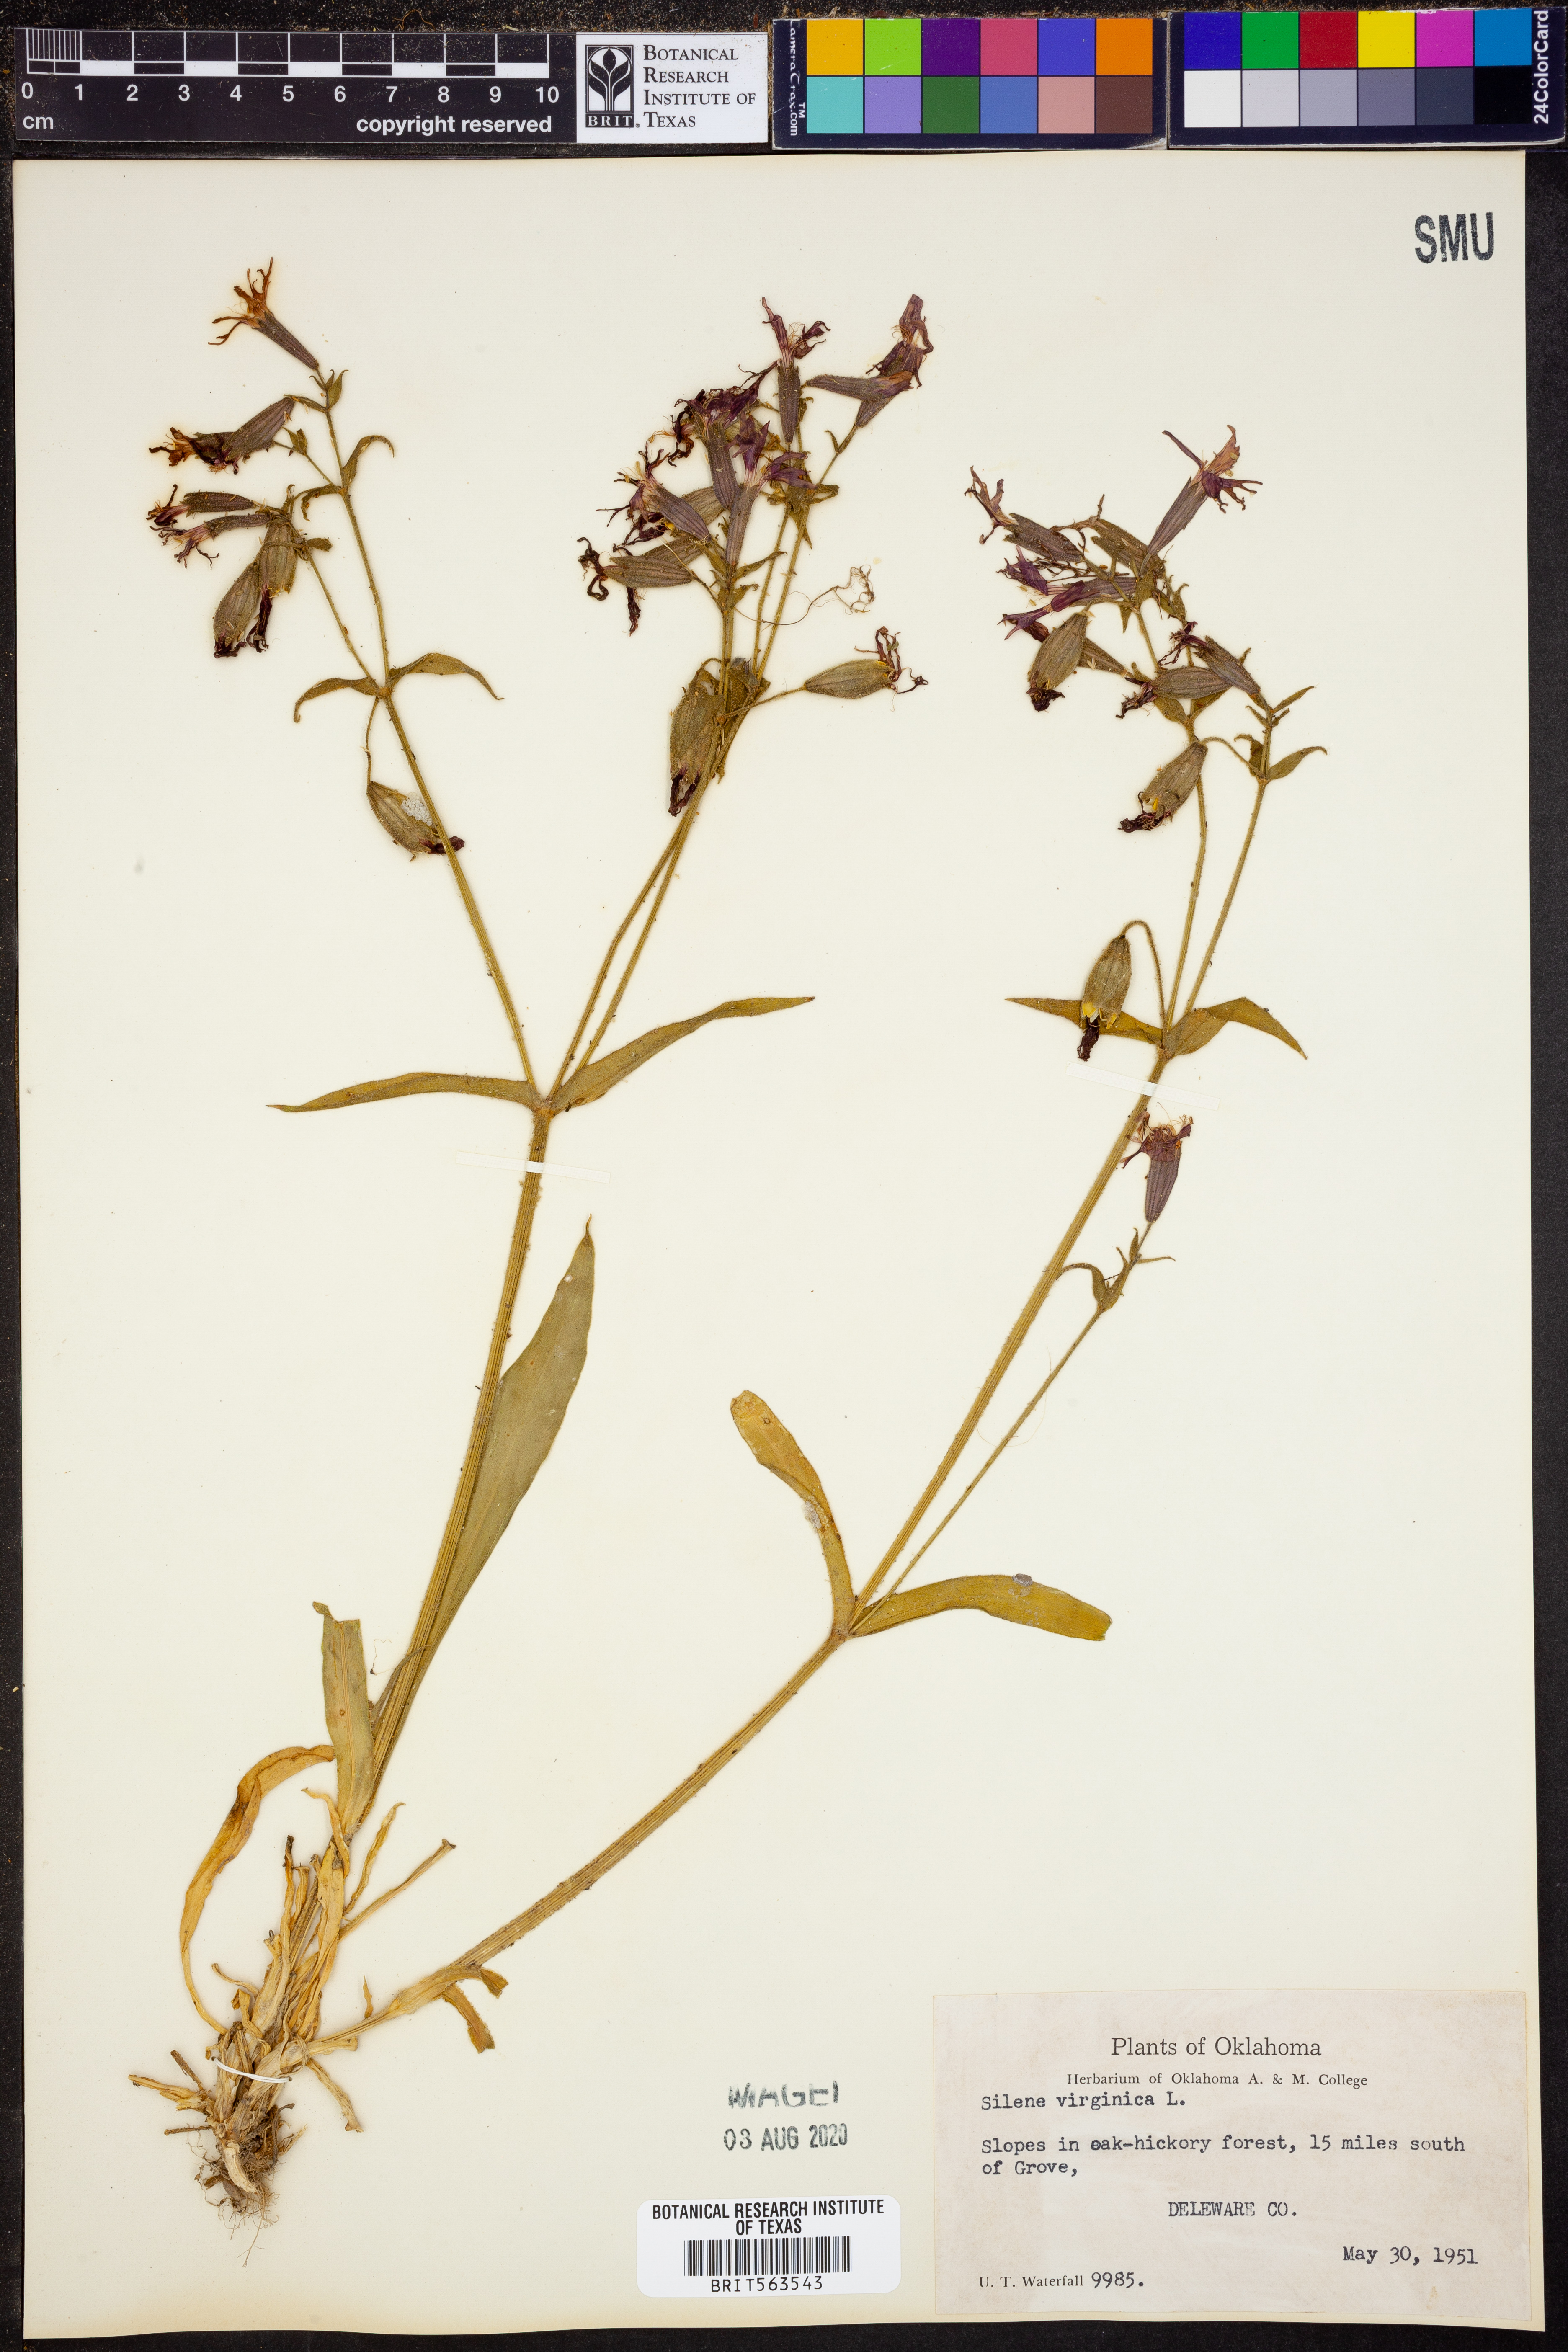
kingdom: Plantae
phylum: Tracheophyta
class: Magnoliopsida
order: Caryophyllales
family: Caryophyllaceae
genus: Silene
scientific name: Silene virginica
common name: Fire-pink
